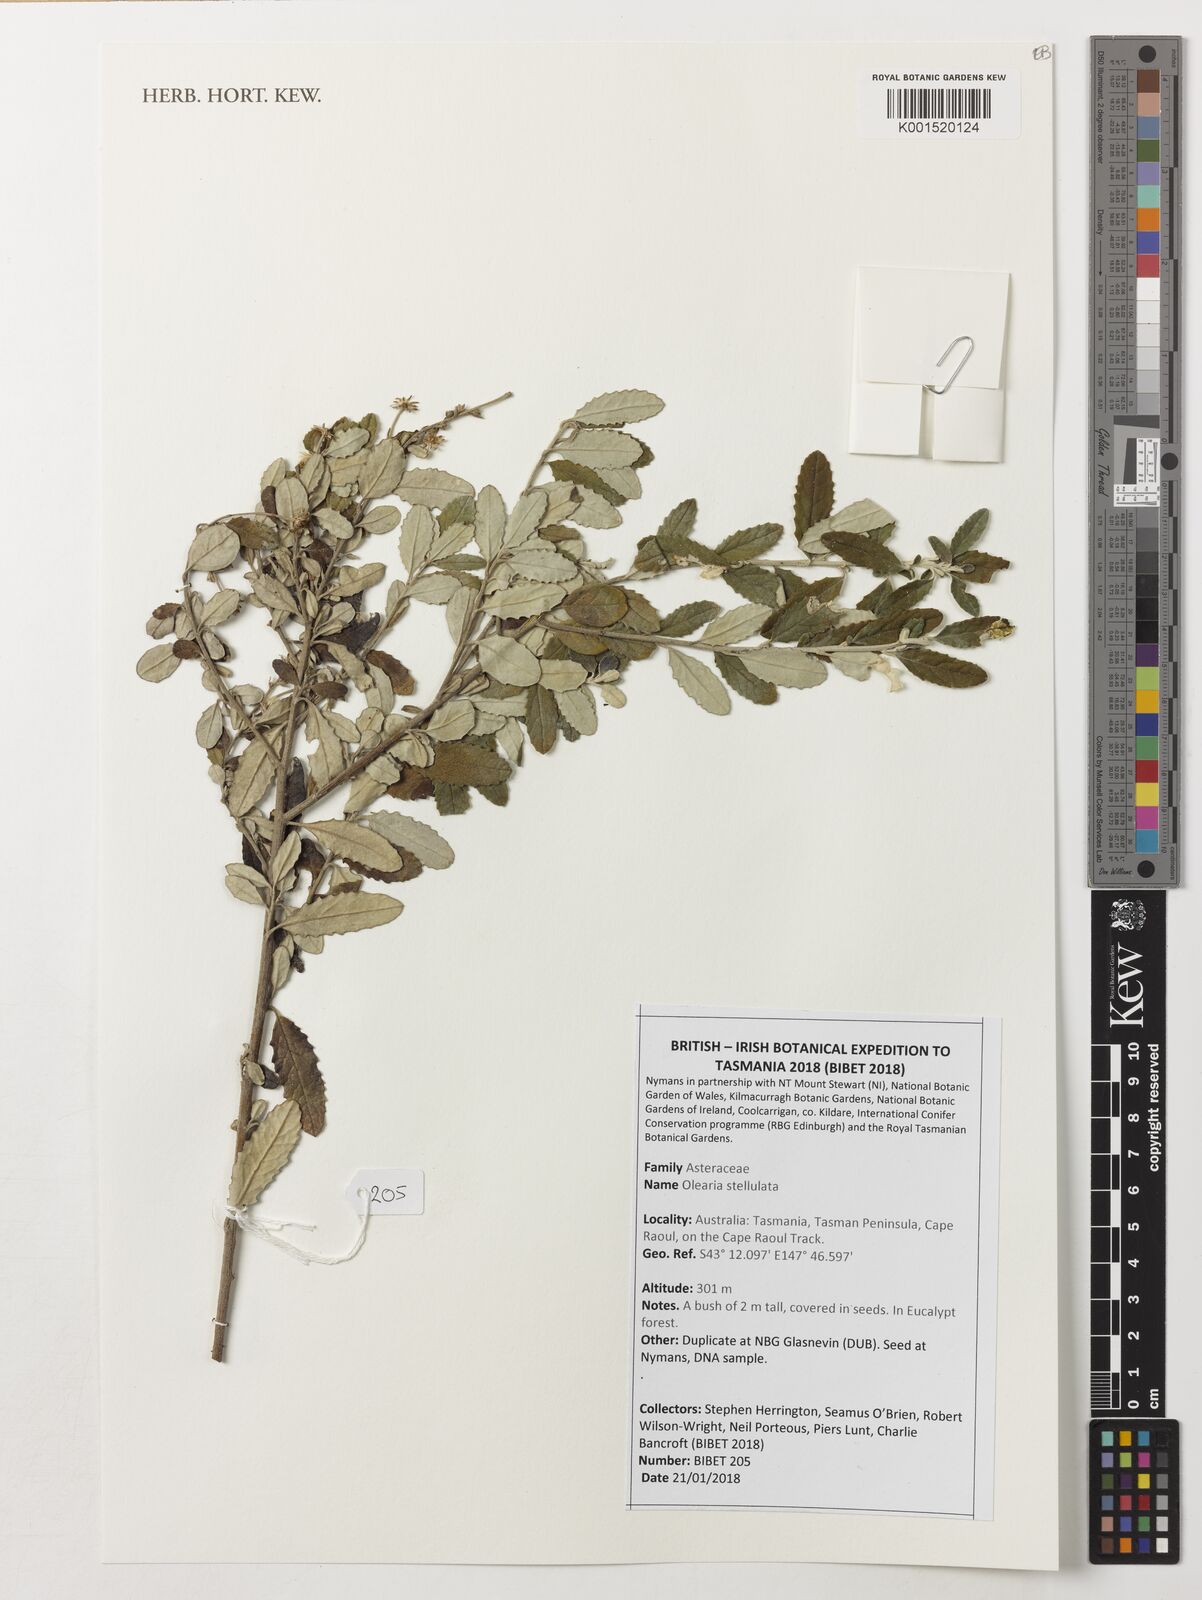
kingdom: Plantae
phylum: Tracheophyta
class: Magnoliopsida
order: Asterales
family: Asteraceae
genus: Olearia
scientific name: Olearia stellulata
